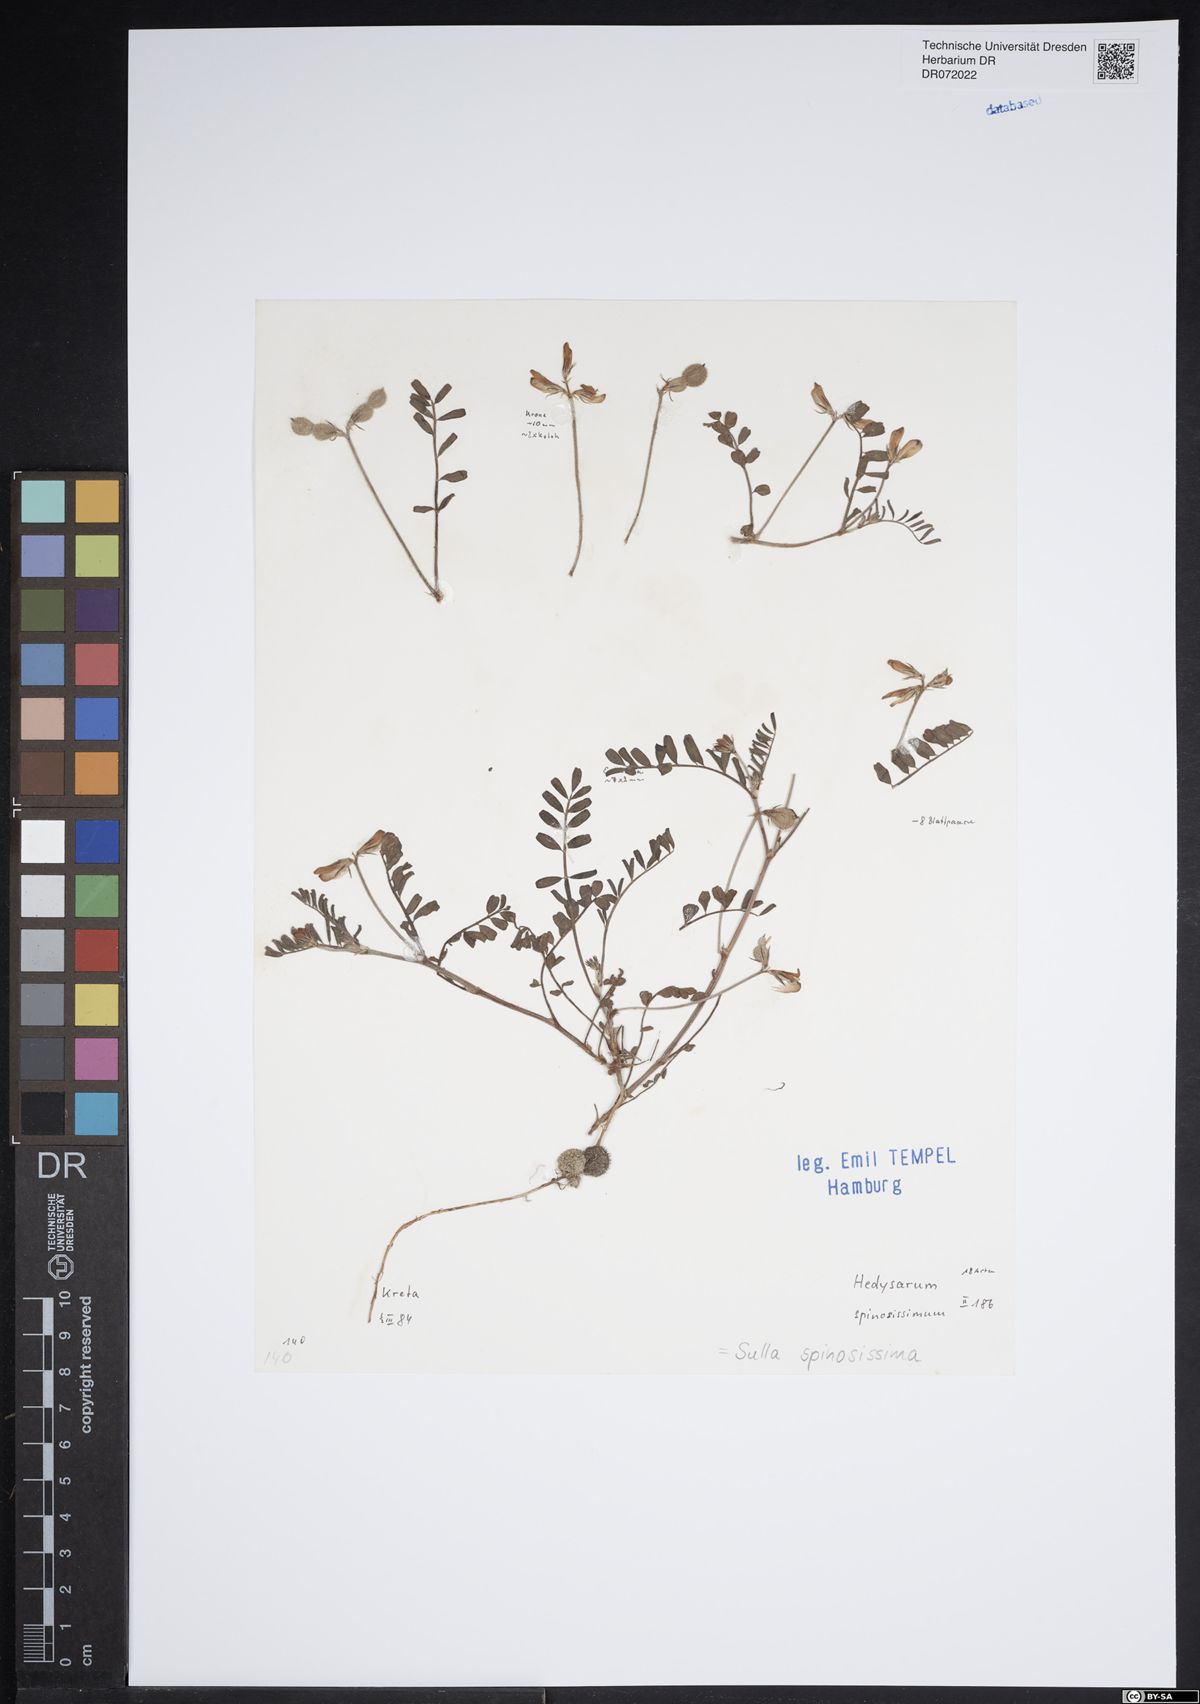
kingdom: Plantae
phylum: Tracheophyta
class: Magnoliopsida
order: Fabales
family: Fabaceae
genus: Sulla
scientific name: Sulla spinosissima
